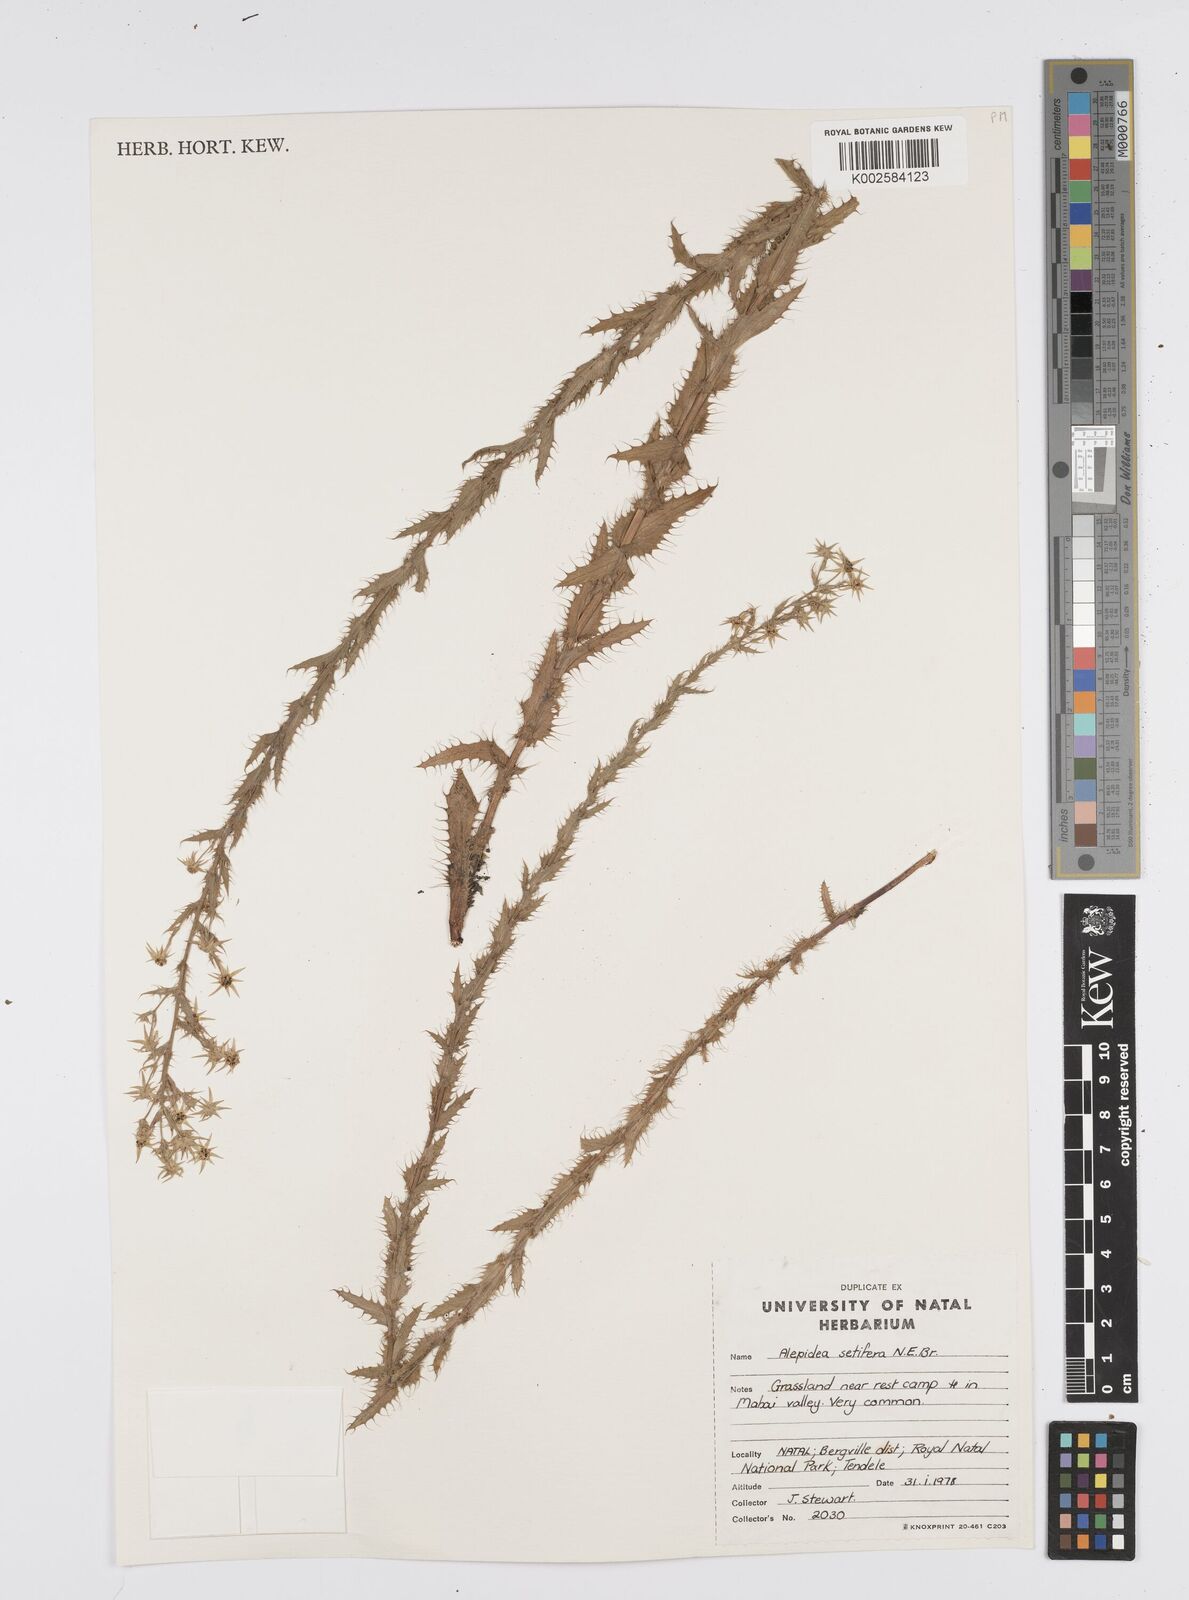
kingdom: Plantae
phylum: Tracheophyta
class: Magnoliopsida
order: Apiales
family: Apiaceae
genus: Alepidea
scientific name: Alepidea setifera
